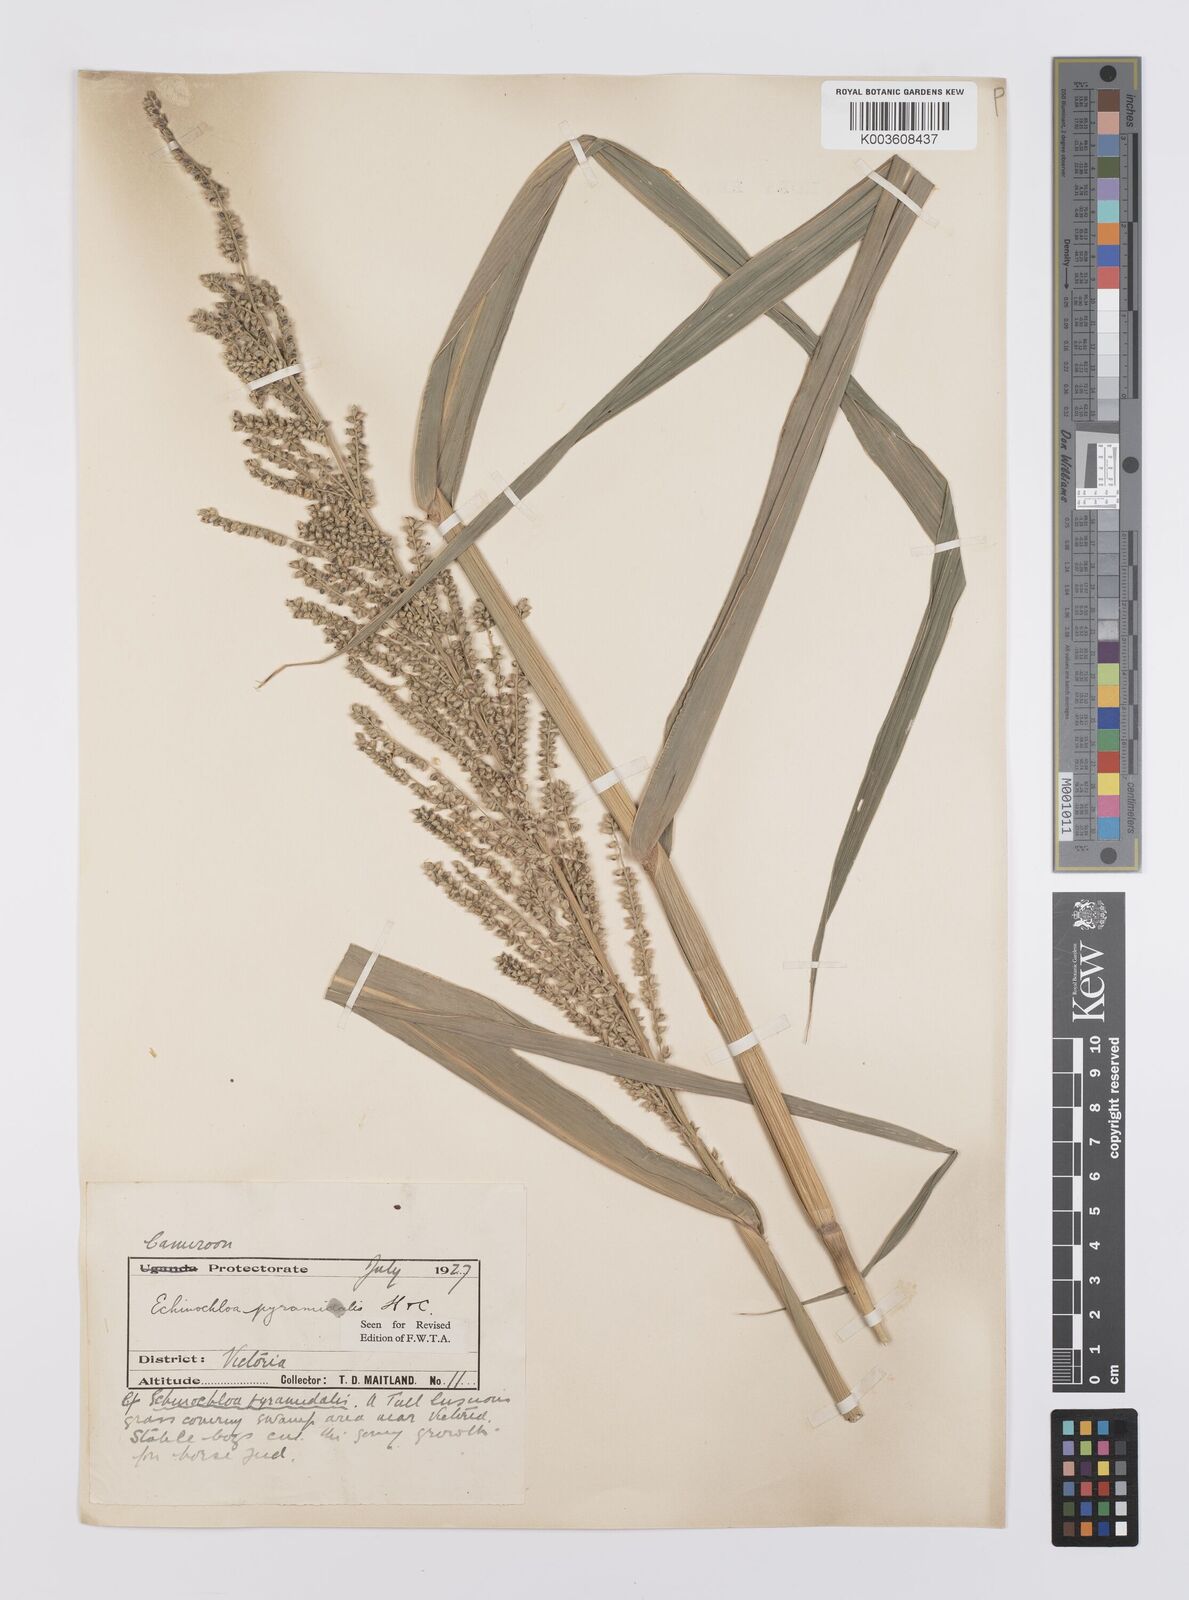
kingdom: Plantae
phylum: Tracheophyta
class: Liliopsida
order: Poales
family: Poaceae
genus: Echinochloa
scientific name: Echinochloa pyramidalis
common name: Antelope grass
